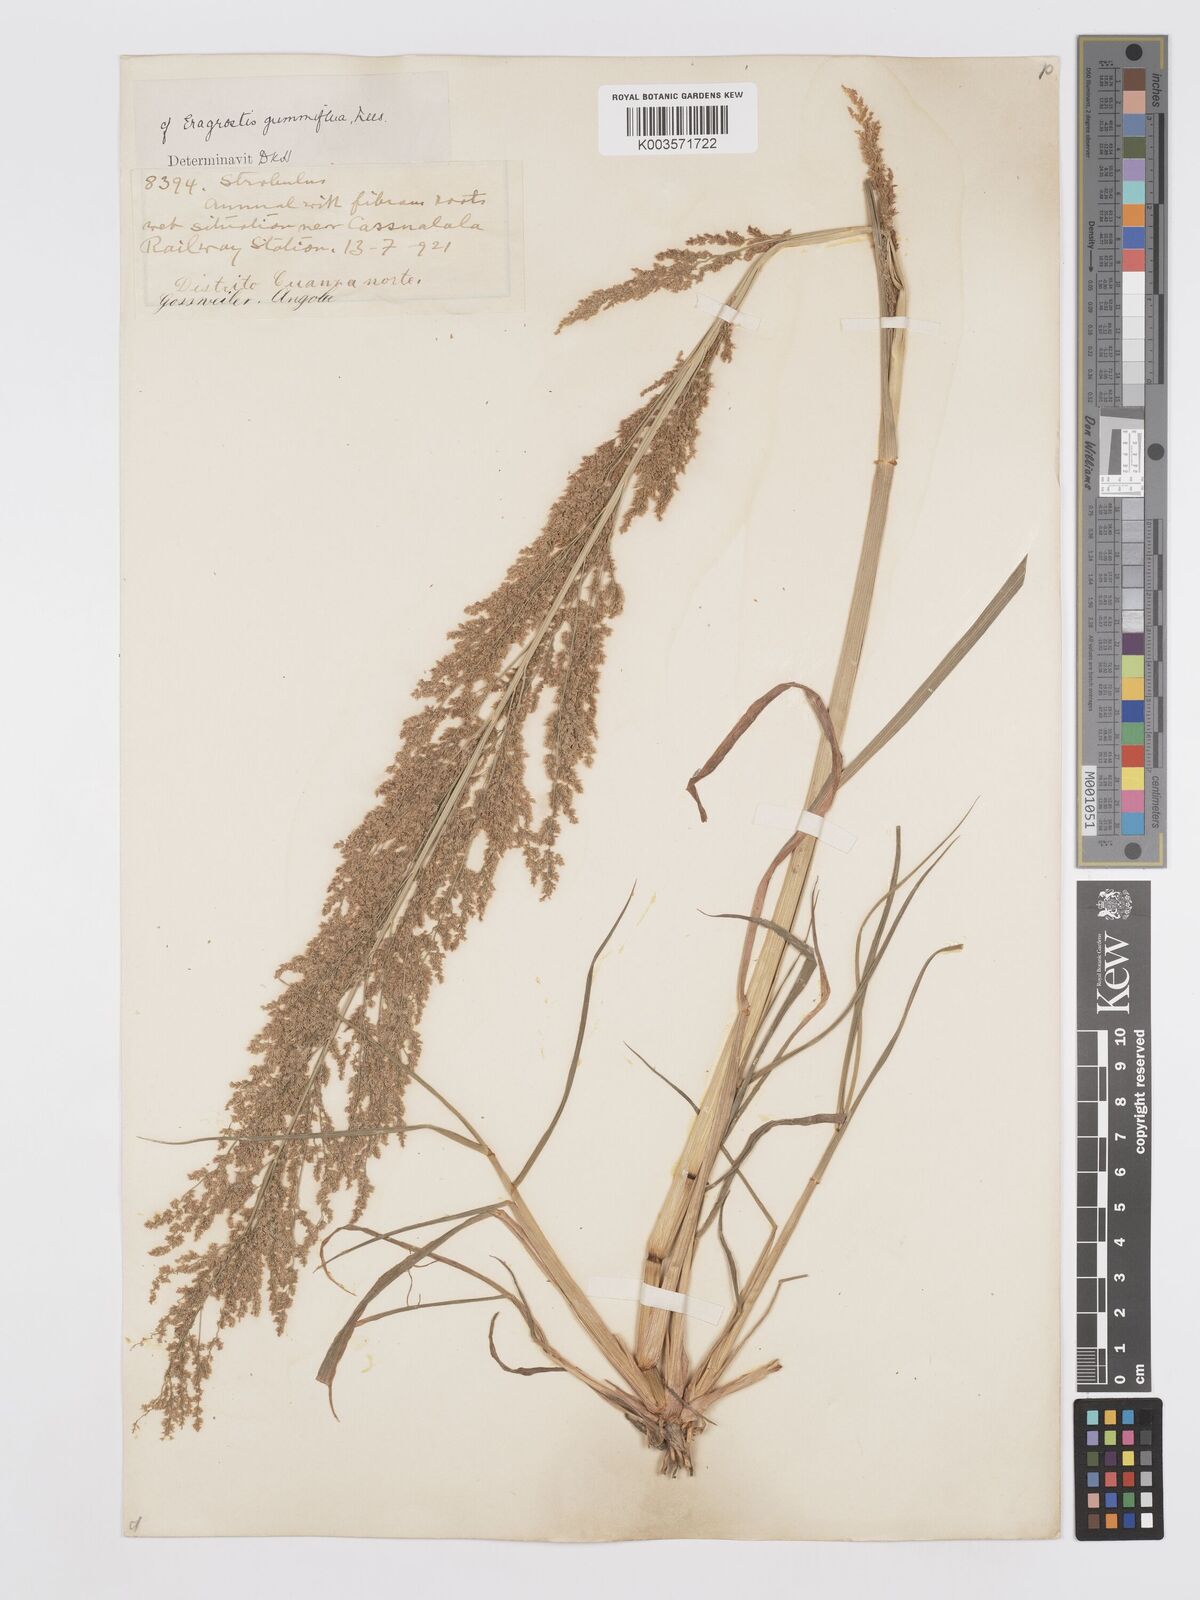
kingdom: Plantae
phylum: Tracheophyta
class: Liliopsida
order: Poales
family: Poaceae
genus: Eragrostis
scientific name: Eragrostis japonica
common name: Pond lovegrass
